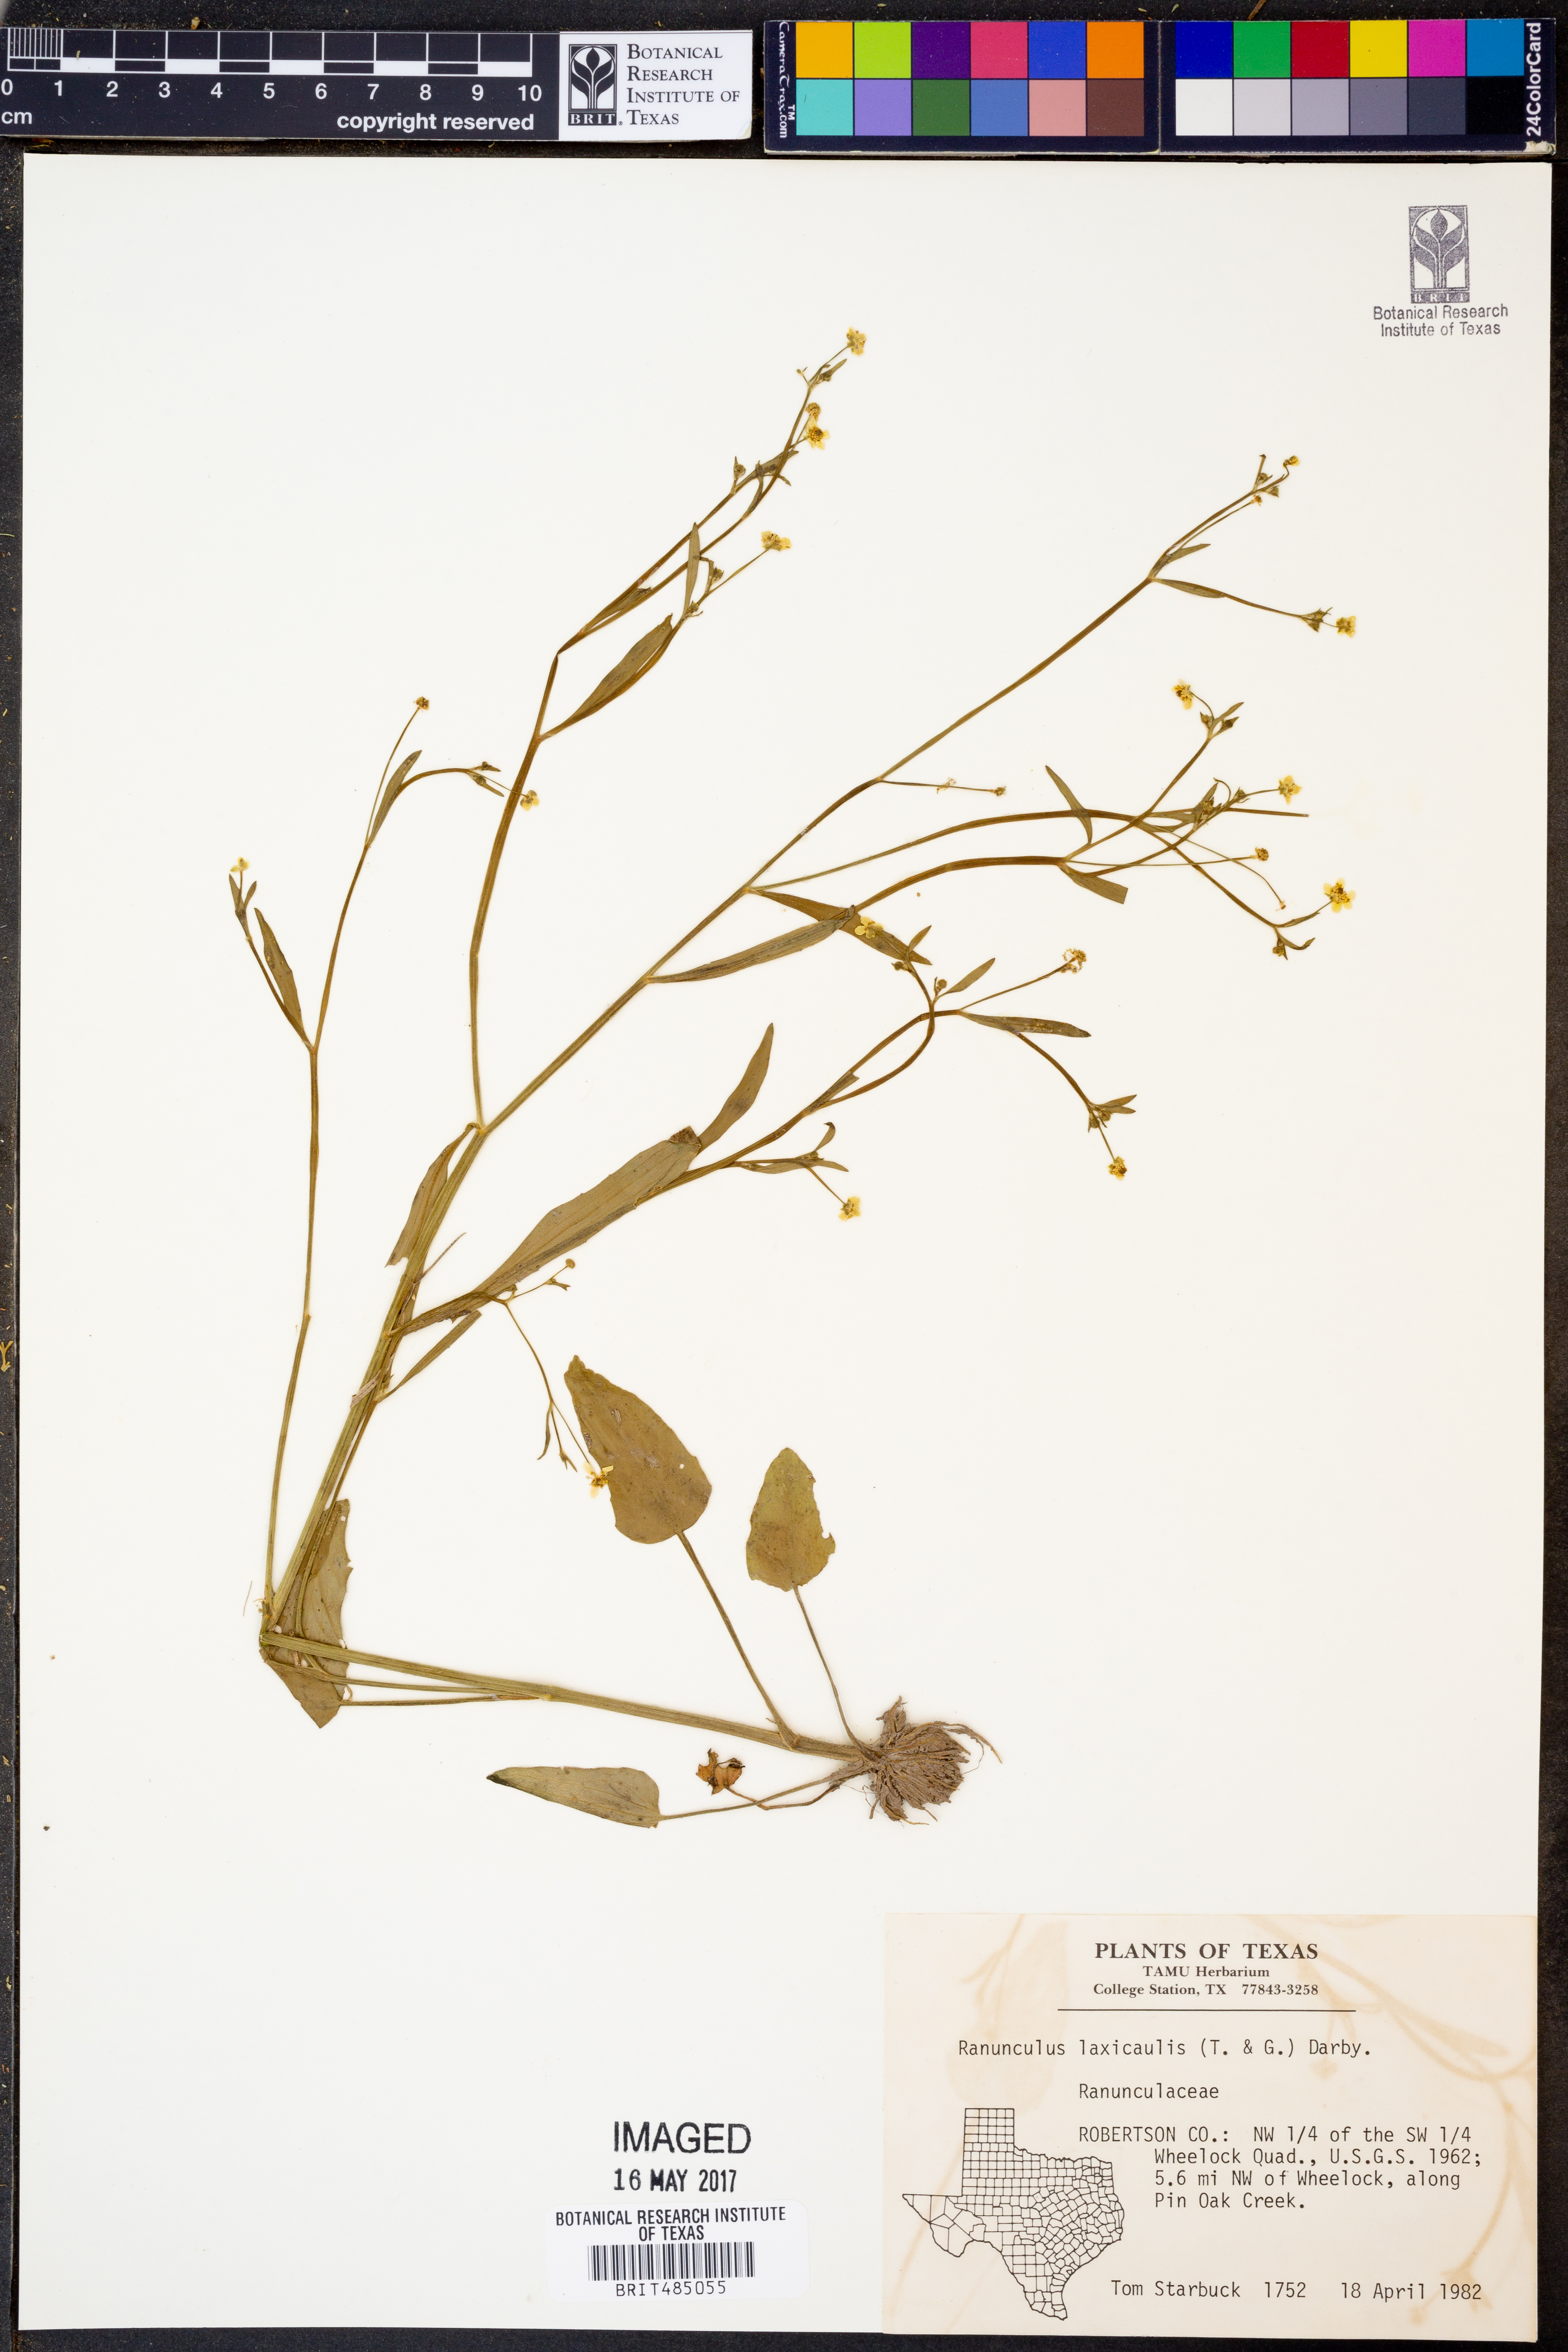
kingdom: Plantae
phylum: Tracheophyta
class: Magnoliopsida
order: Ranunculales
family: Ranunculaceae
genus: Ranunculus
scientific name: Ranunculus laxicaulis
